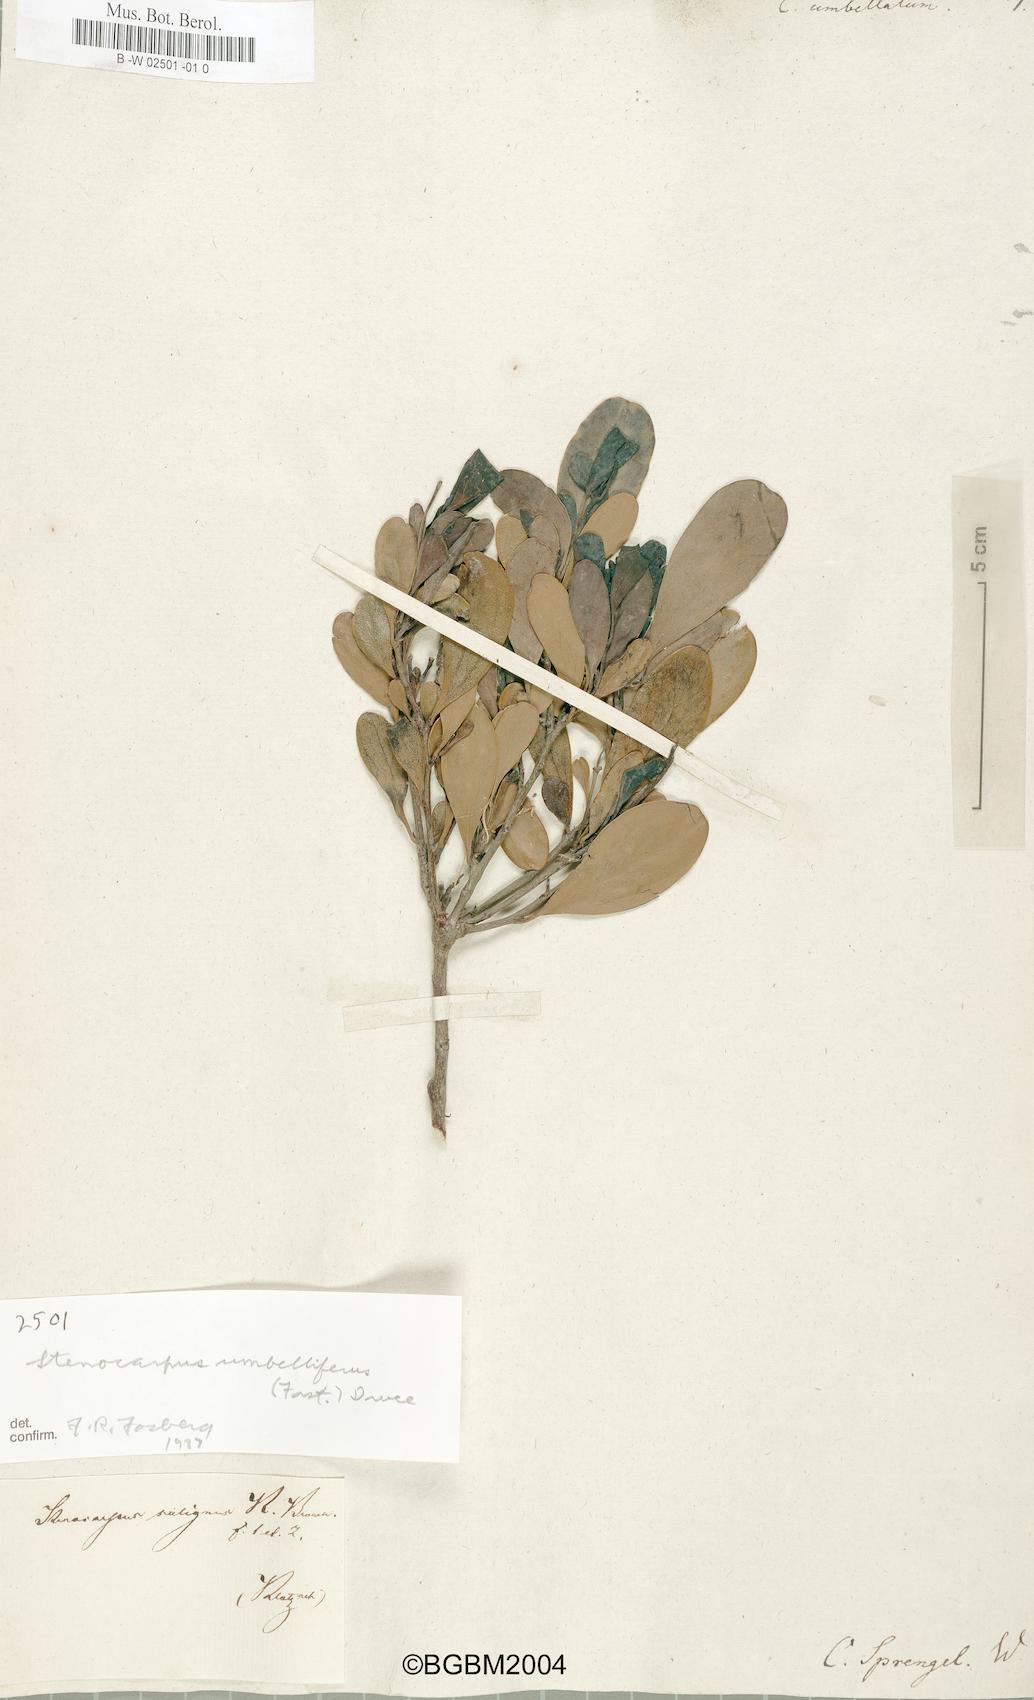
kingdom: Plantae
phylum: Tracheophyta
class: Magnoliopsida
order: Proteales
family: Proteaceae
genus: Stenocarpus
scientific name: Stenocarpus umbellifer
